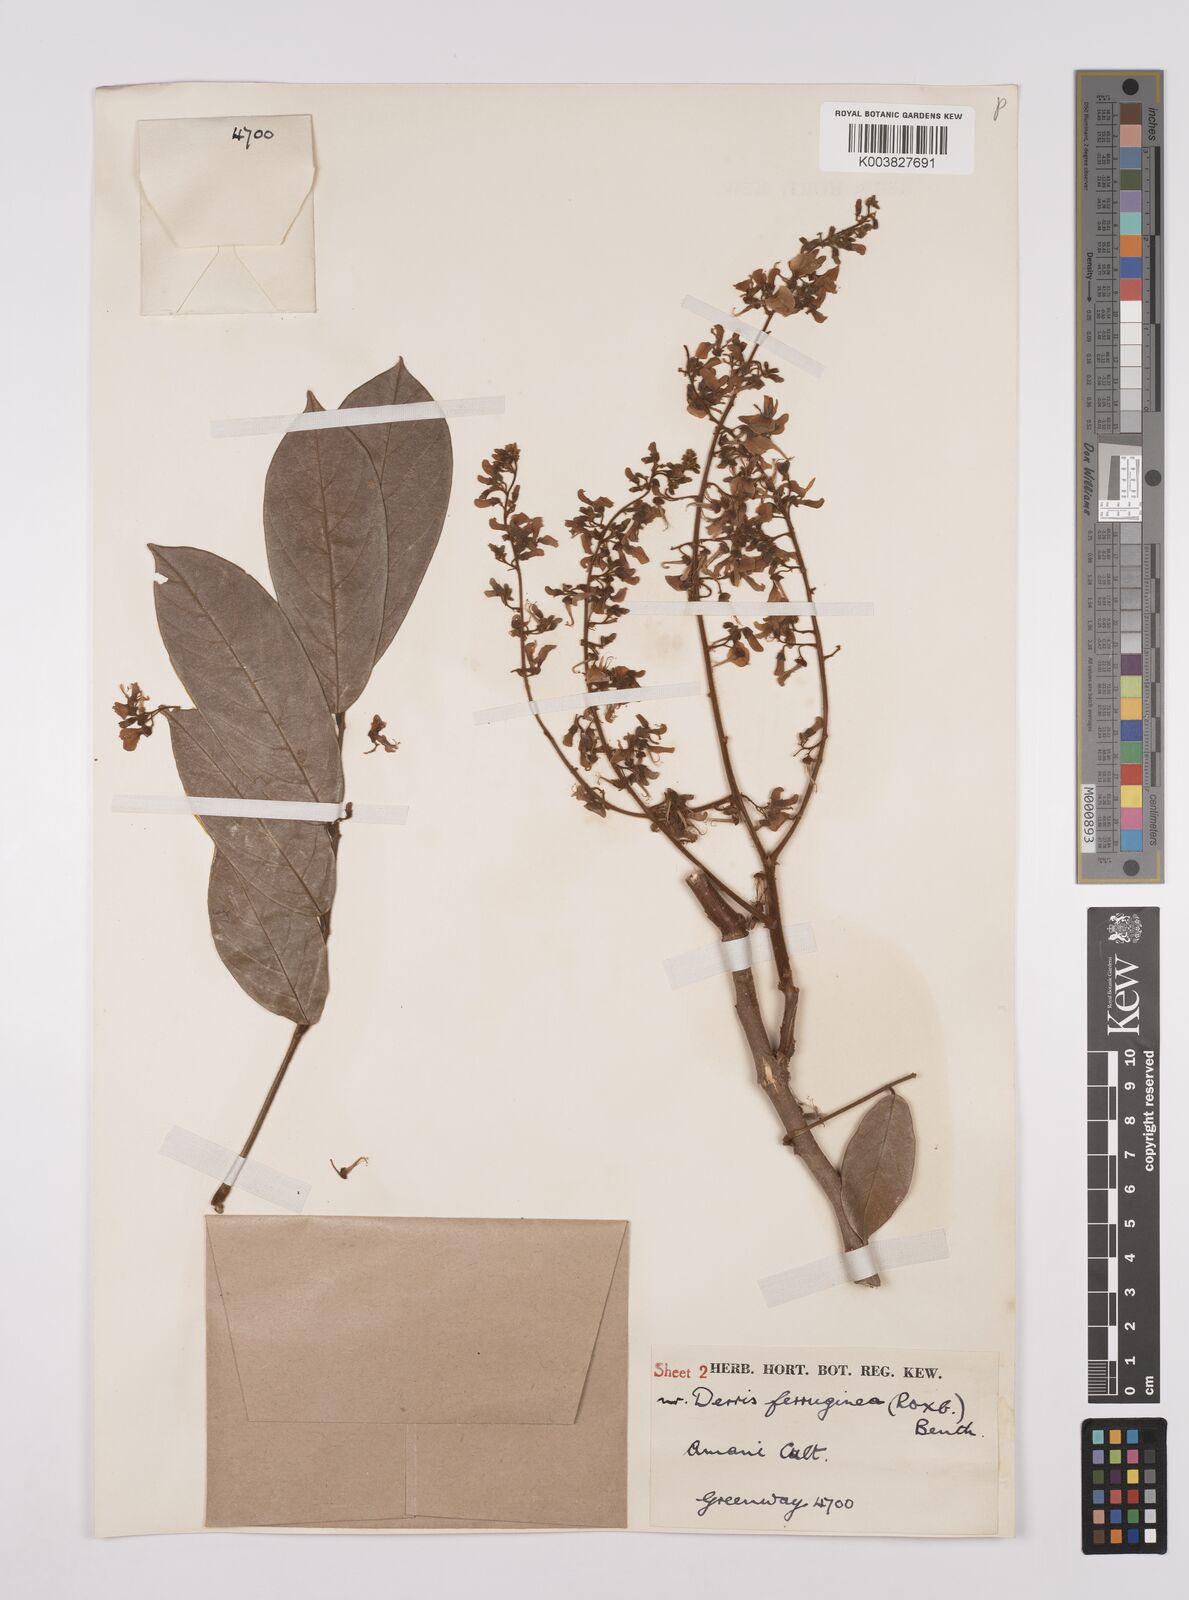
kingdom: Plantae
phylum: Tracheophyta
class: Magnoliopsida
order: Fabales
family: Fabaceae
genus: Derris
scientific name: Derris ferruginea
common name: Indian tubaroot
